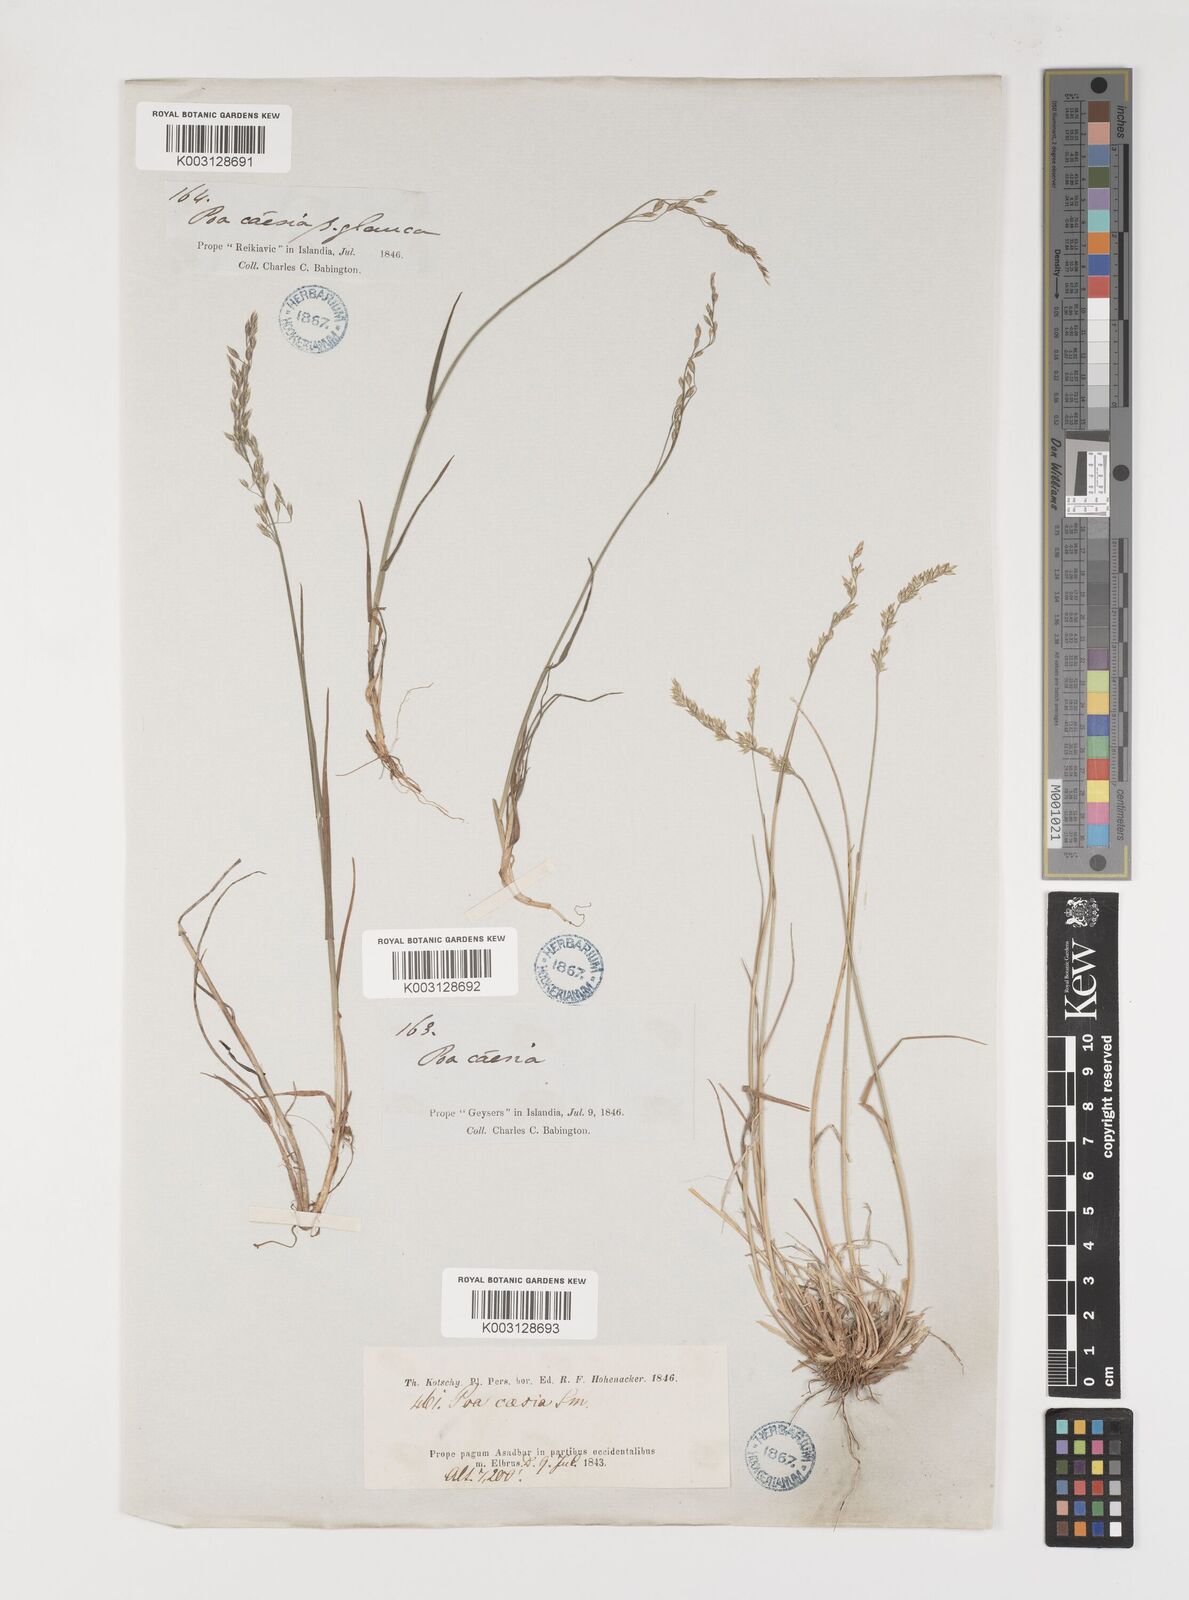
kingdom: Plantae
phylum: Tracheophyta
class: Liliopsida
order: Poales
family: Poaceae
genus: Poa
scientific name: Poa araratica
